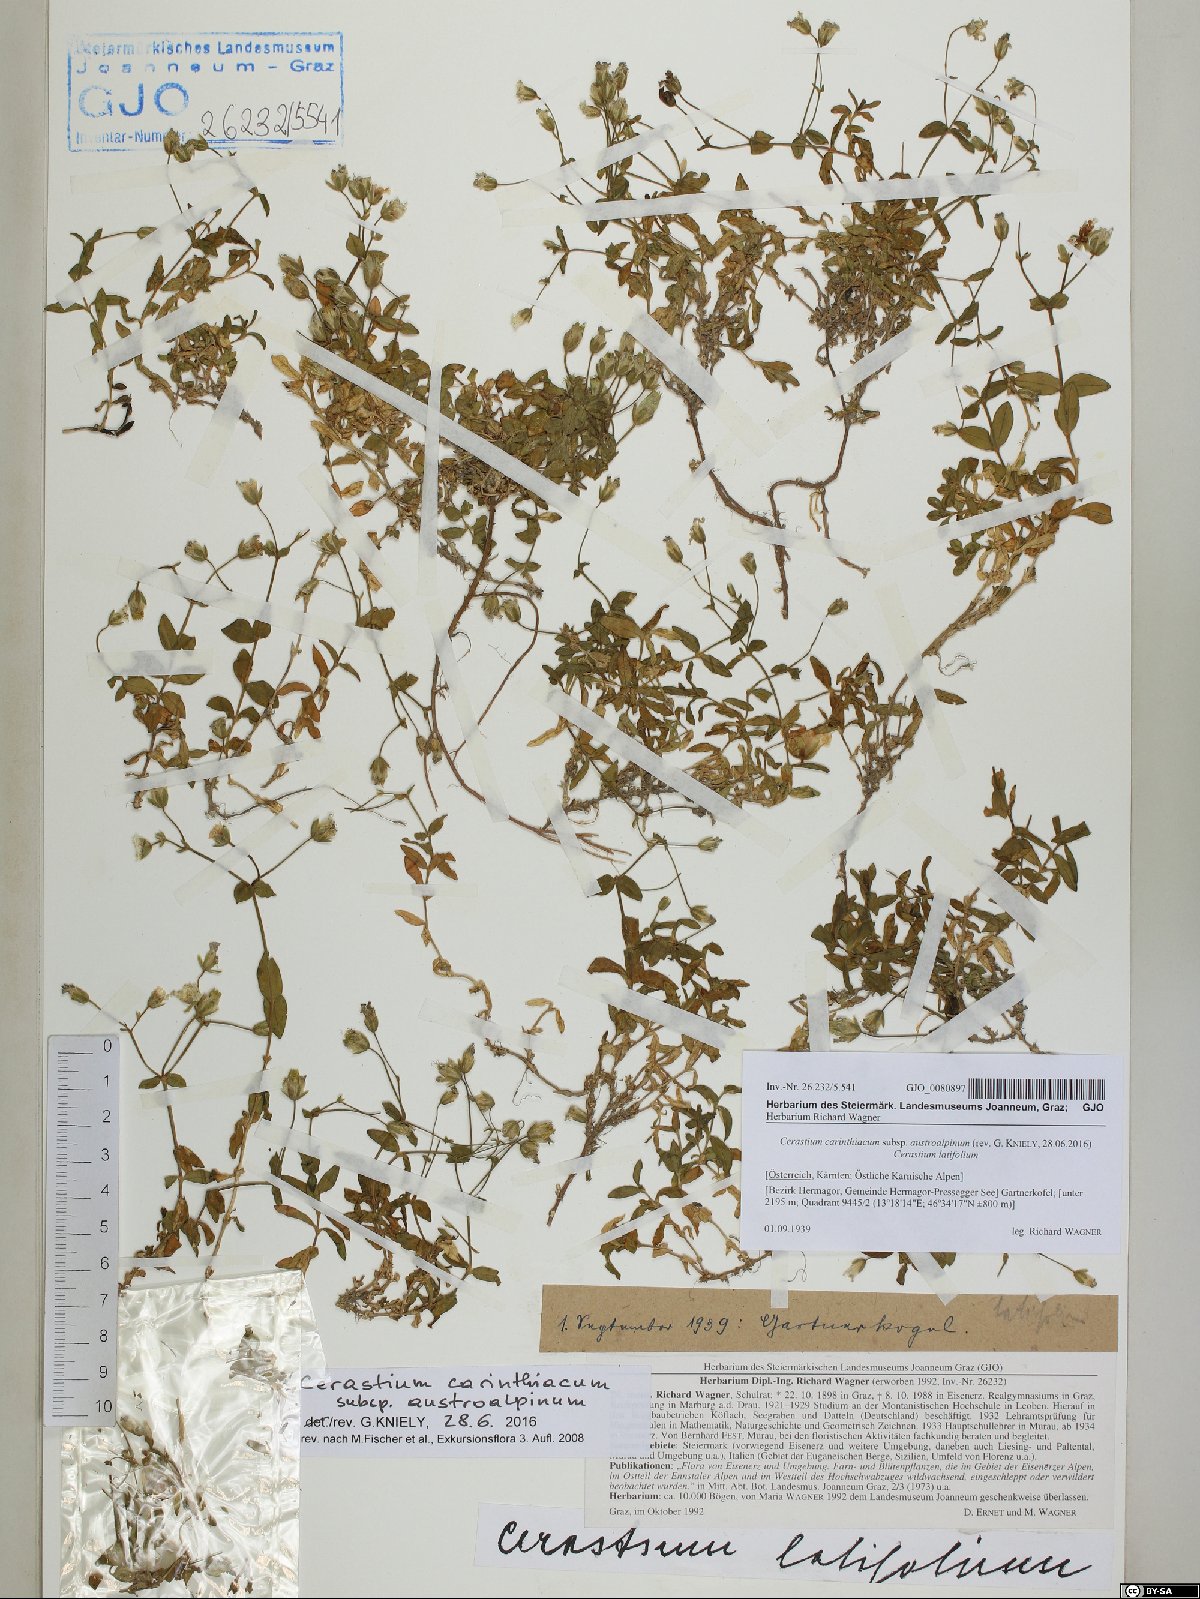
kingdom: Plantae
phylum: Tracheophyta
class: Magnoliopsida
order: Caryophyllales
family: Caryophyllaceae
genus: Cerastium
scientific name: Cerastium carinthiacum
